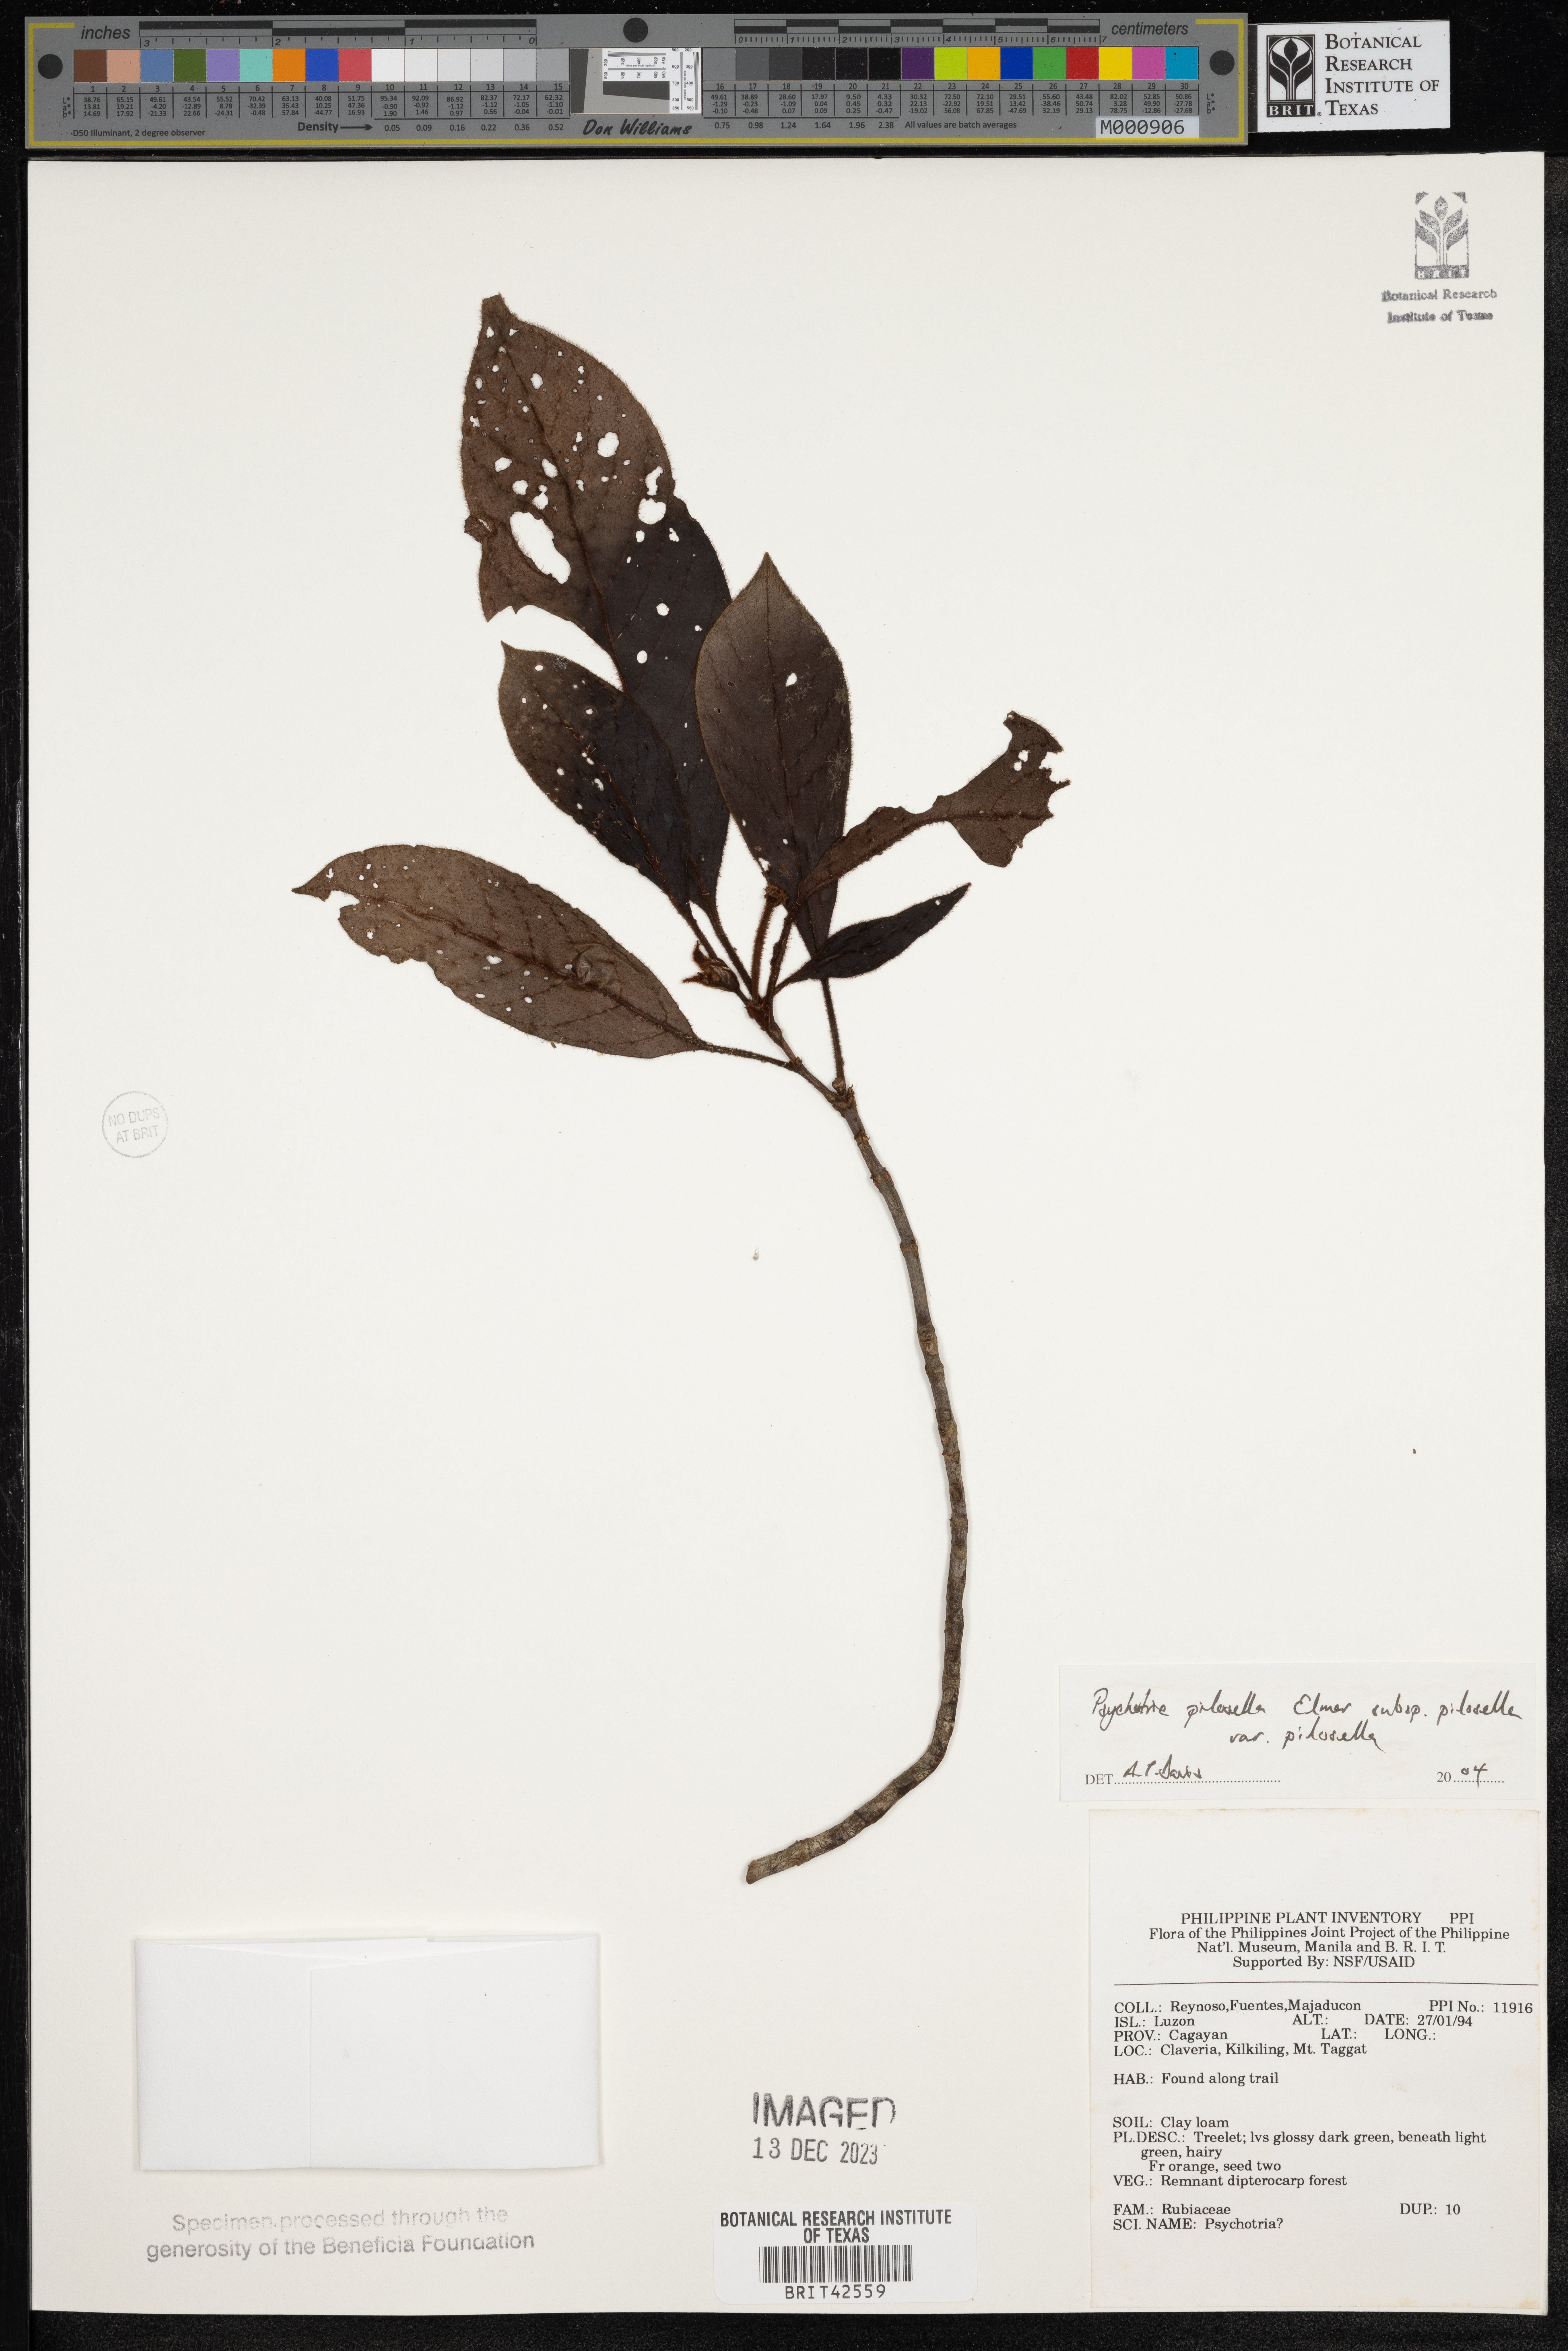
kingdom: Plantae
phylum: Tracheophyta
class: Magnoliopsida
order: Gentianales
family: Rubiaceae
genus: Psychotria
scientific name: Psychotria pilosella
